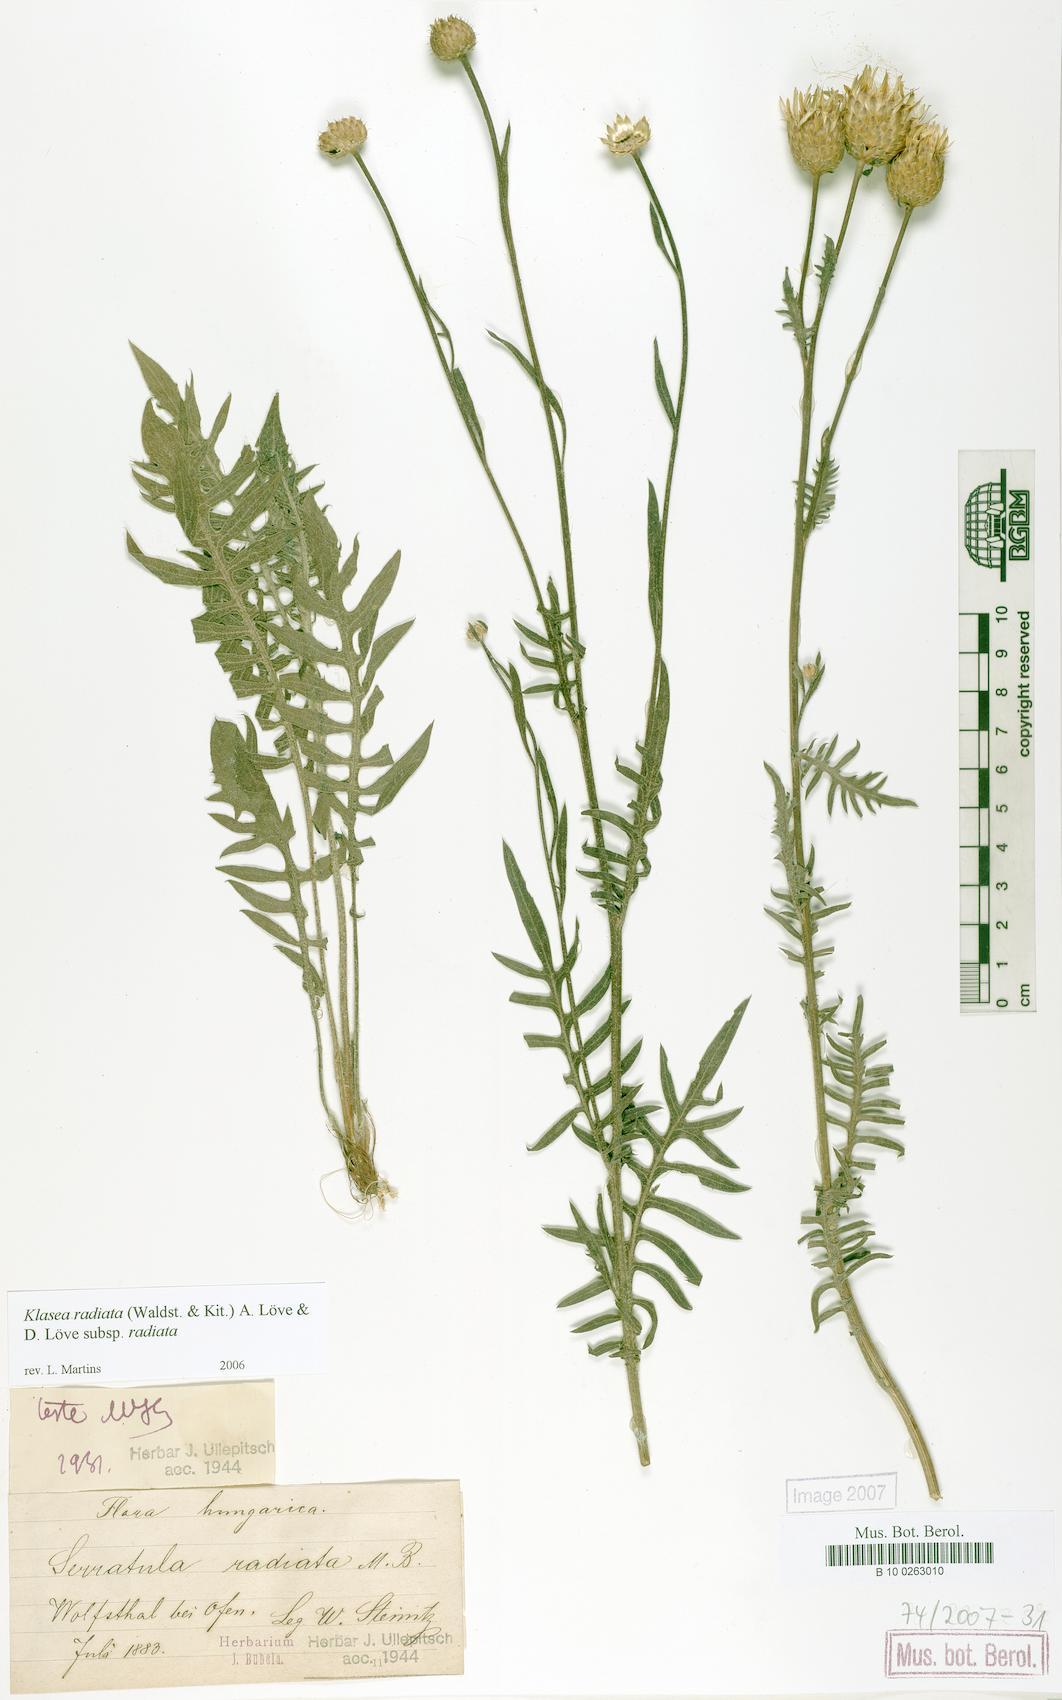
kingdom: Plantae
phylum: Tracheophyta
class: Magnoliopsida
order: Asterales
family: Asteraceae
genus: Klasea
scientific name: Klasea radiata
